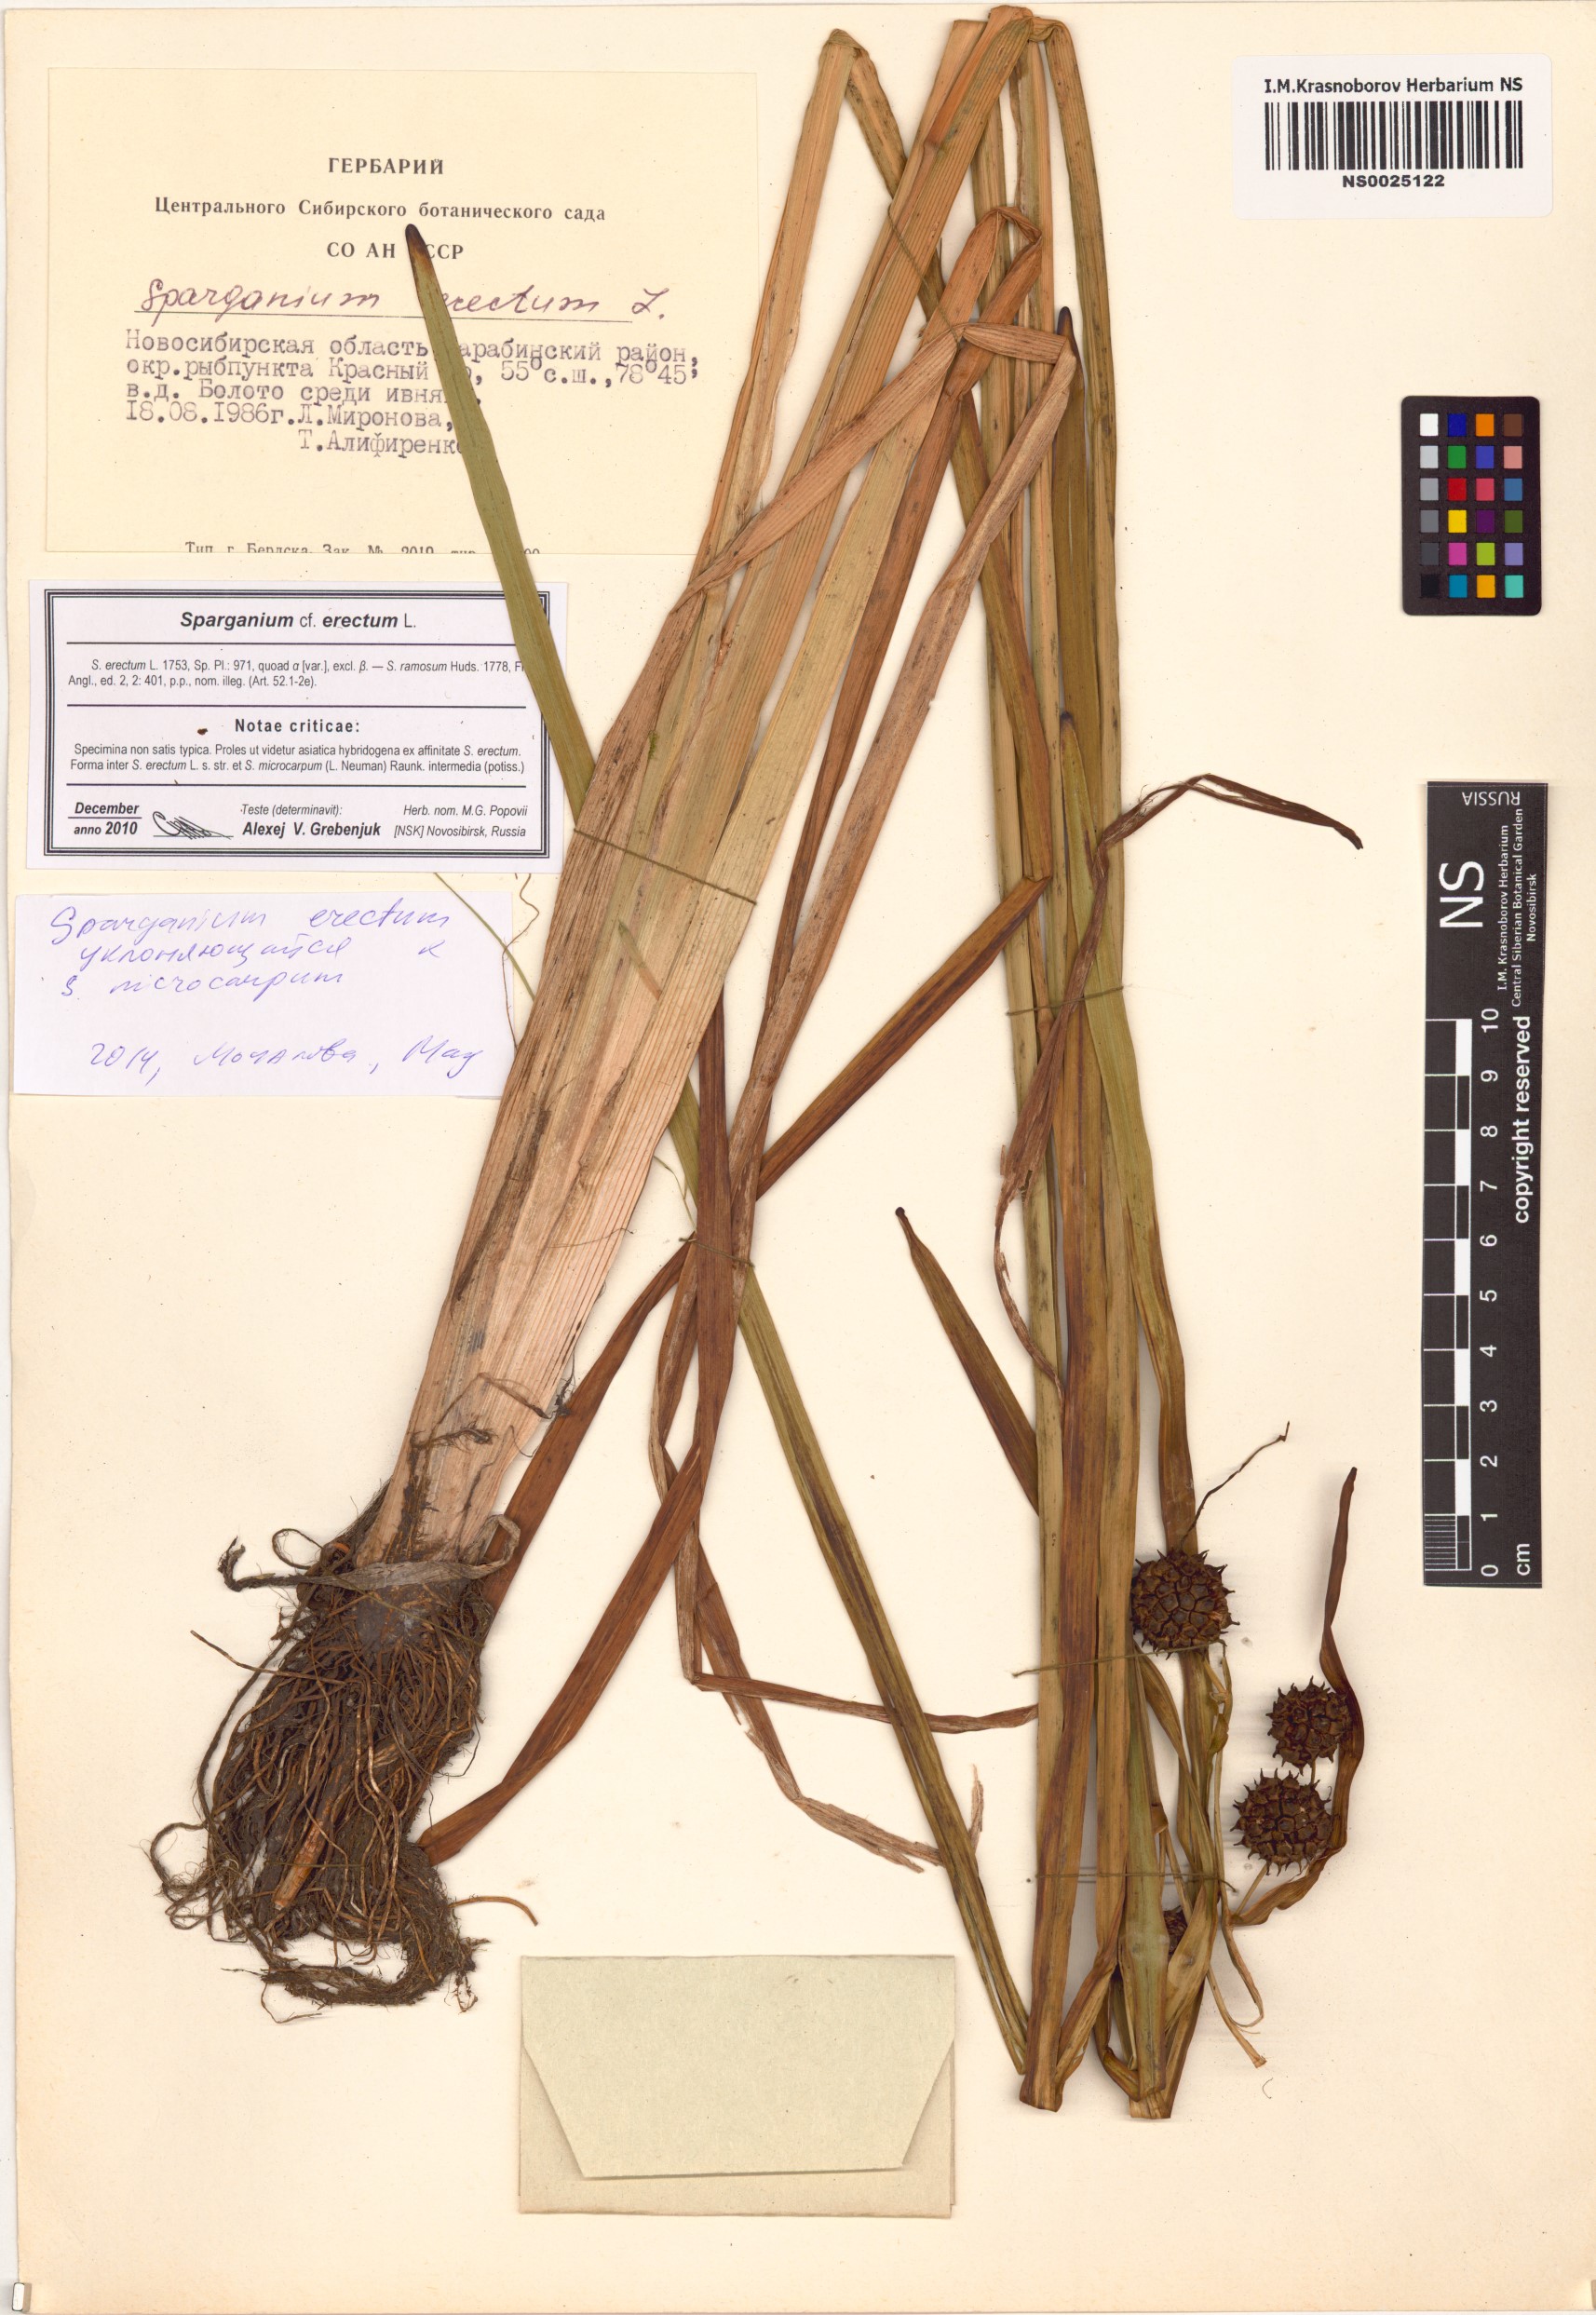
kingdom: Plantae
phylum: Tracheophyta
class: Liliopsida
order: Poales
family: Typhaceae
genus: Sparganium
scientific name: Sparganium erectum
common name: Branched bur-reed
